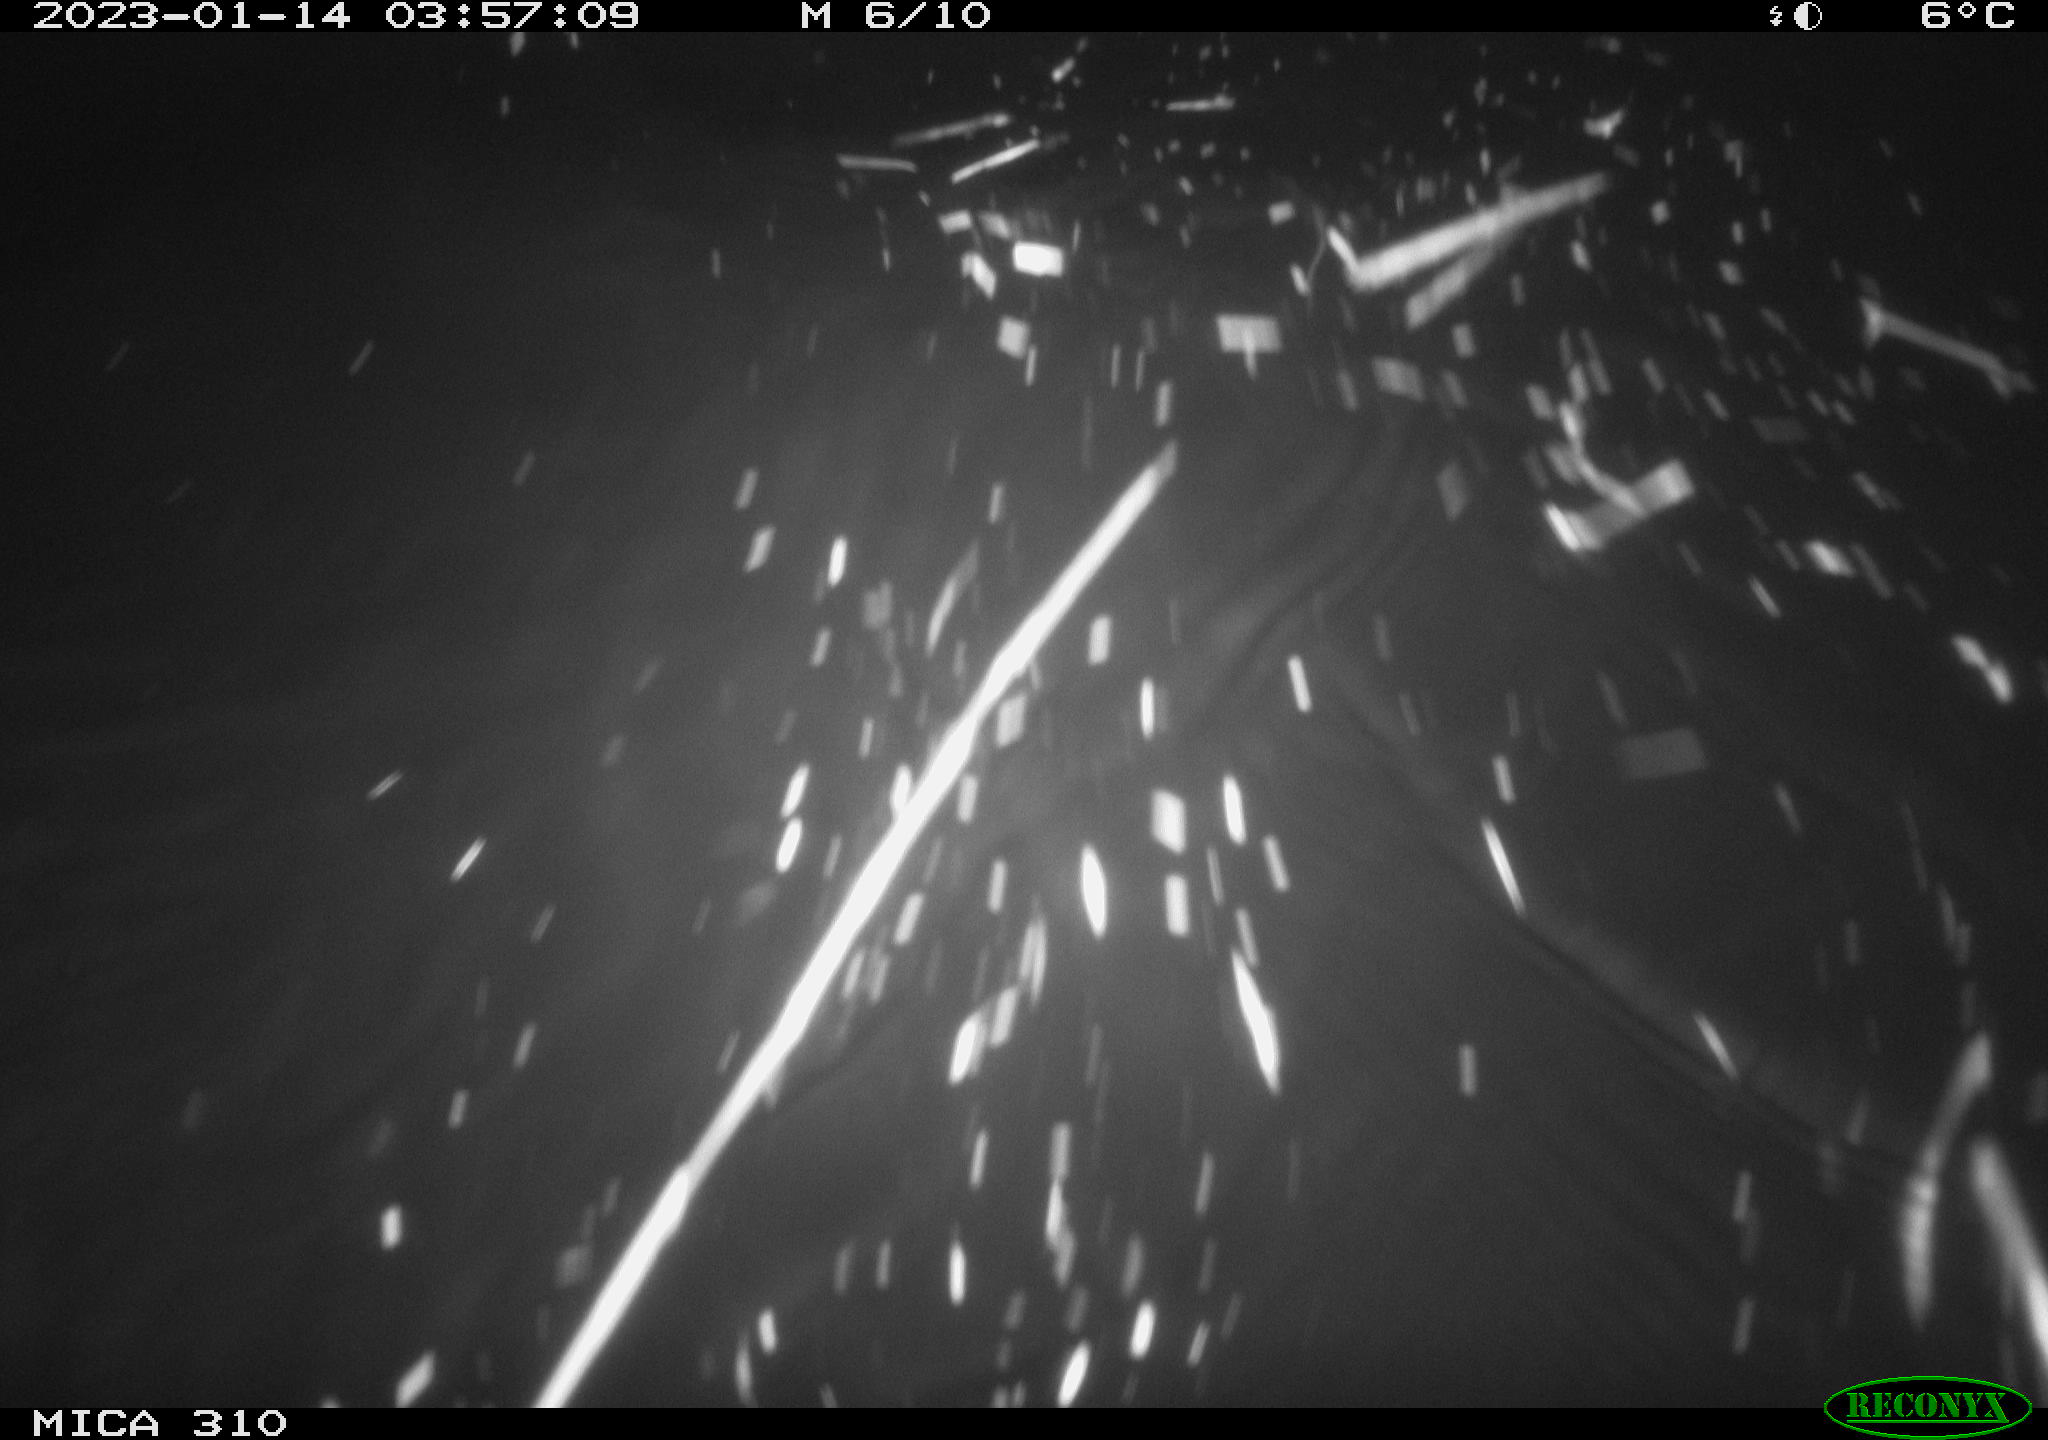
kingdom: Animalia
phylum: Chordata
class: Mammalia
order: Rodentia
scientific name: Rodentia
